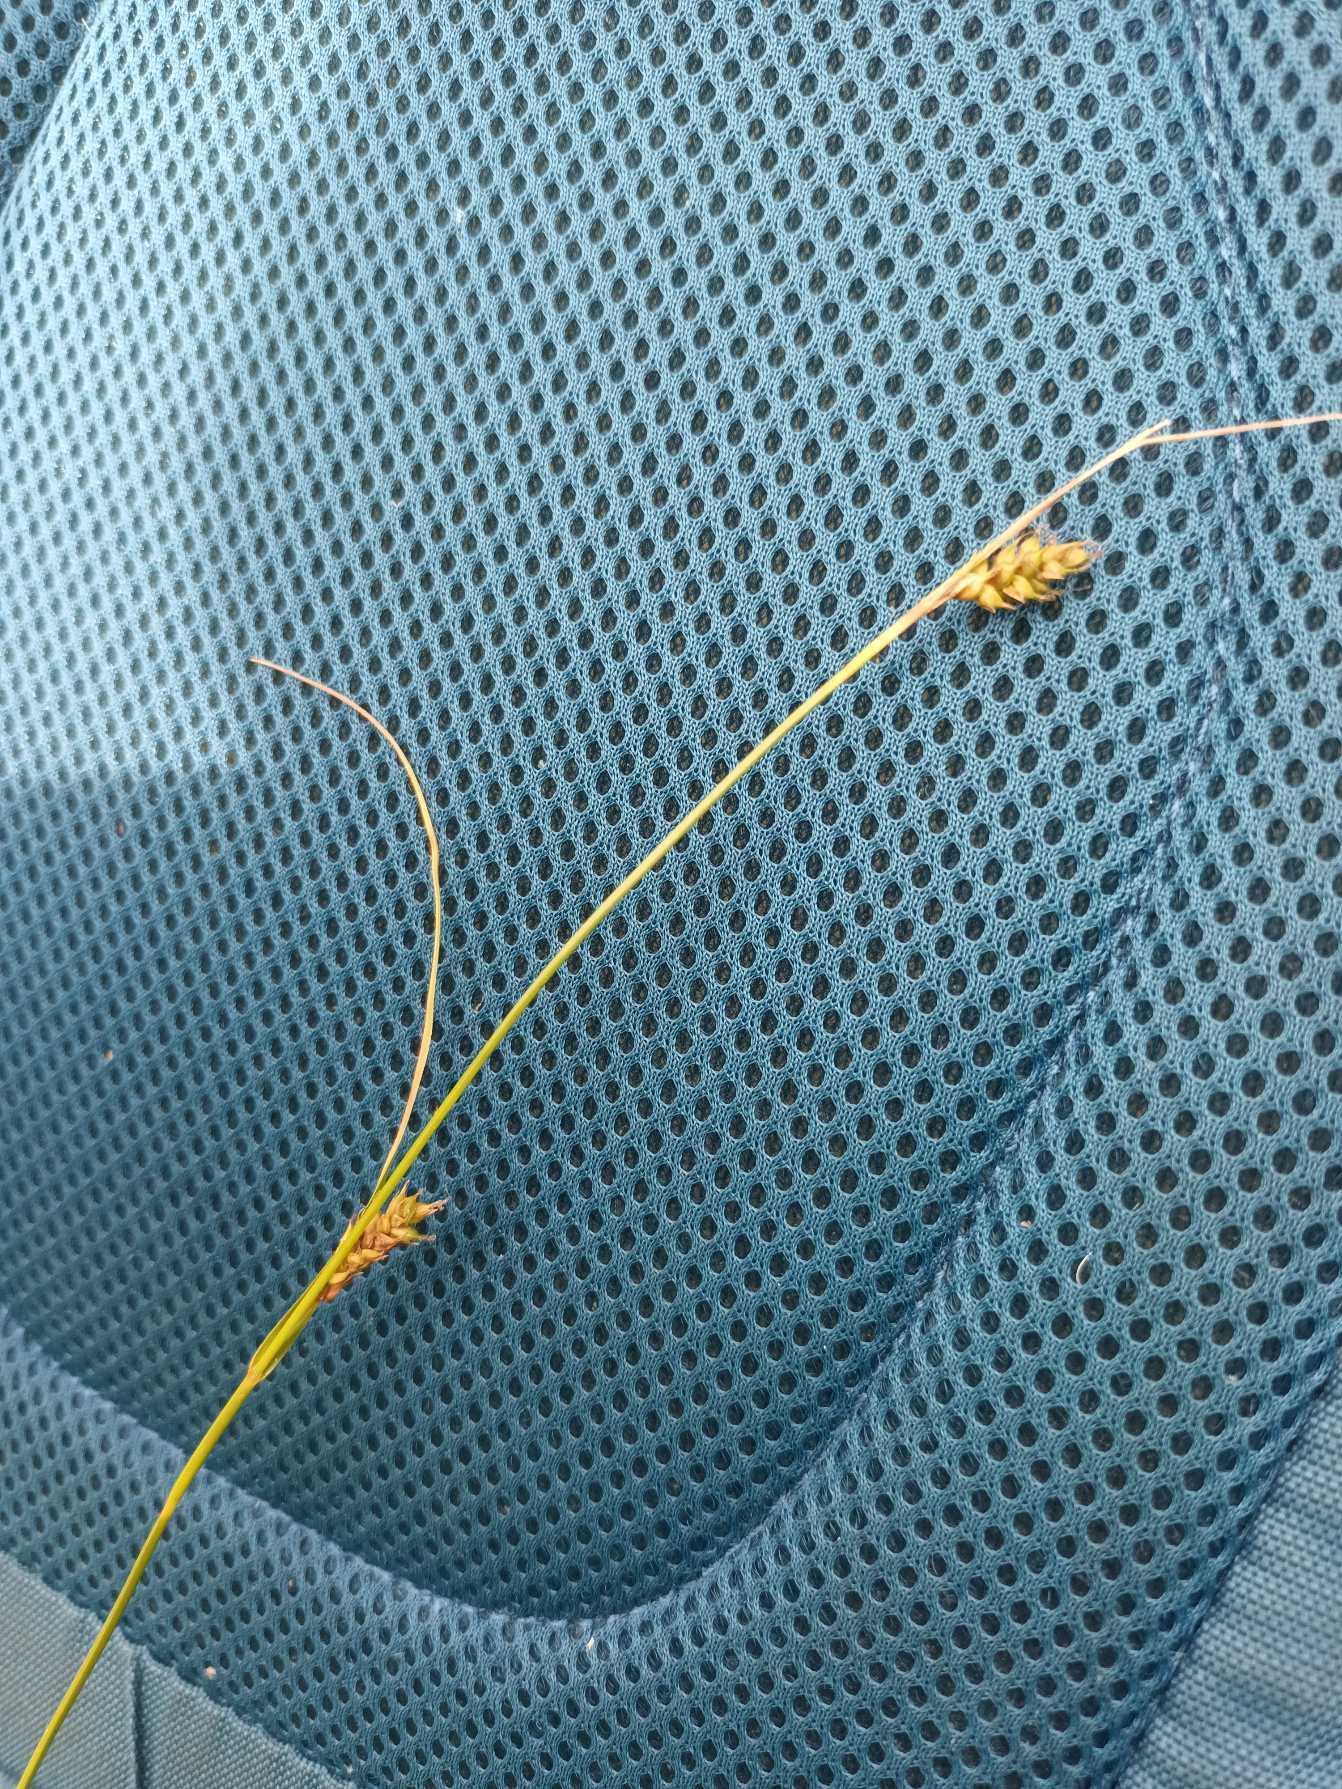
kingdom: Plantae
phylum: Tracheophyta
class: Liliopsida
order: Poales
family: Cyperaceae
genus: Carex
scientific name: Carex distans
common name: Fjernakset star
